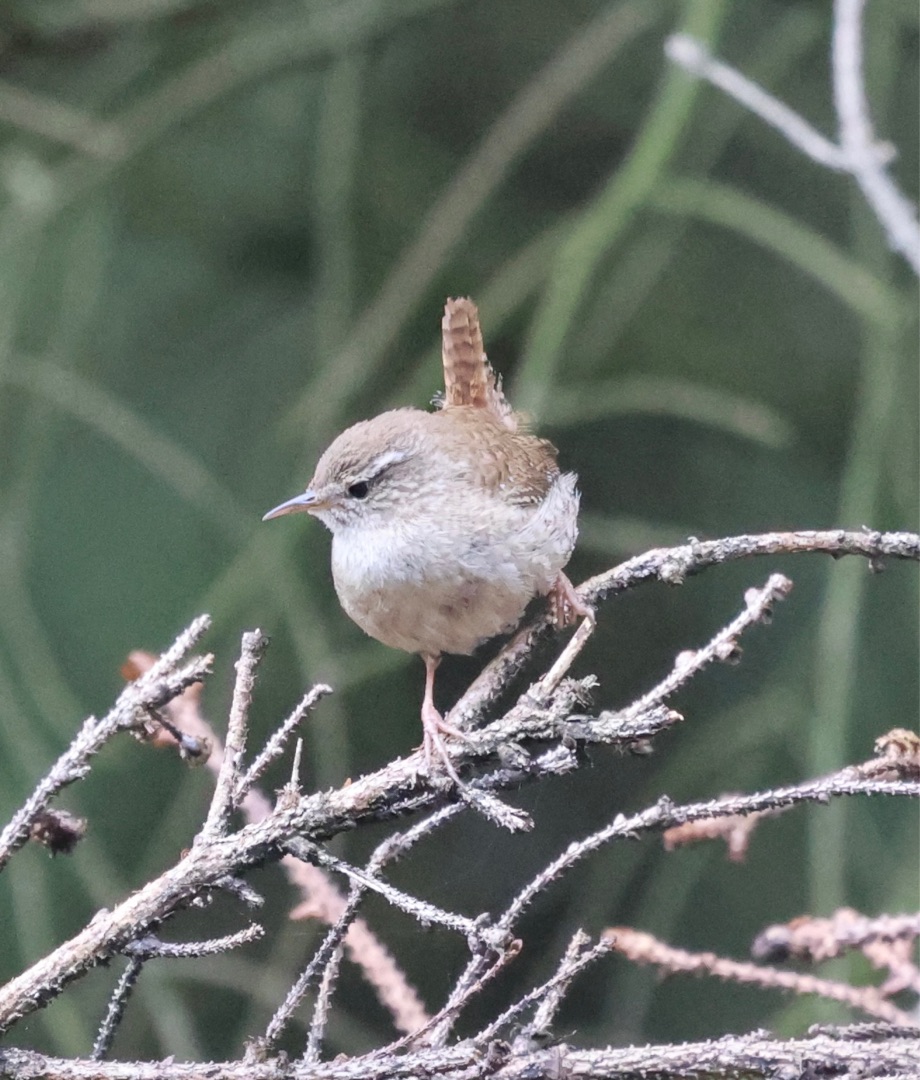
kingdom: Animalia
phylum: Chordata
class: Aves
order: Passeriformes
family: Troglodytidae
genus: Troglodytes
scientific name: Troglodytes troglodytes
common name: Gærdesmutte
